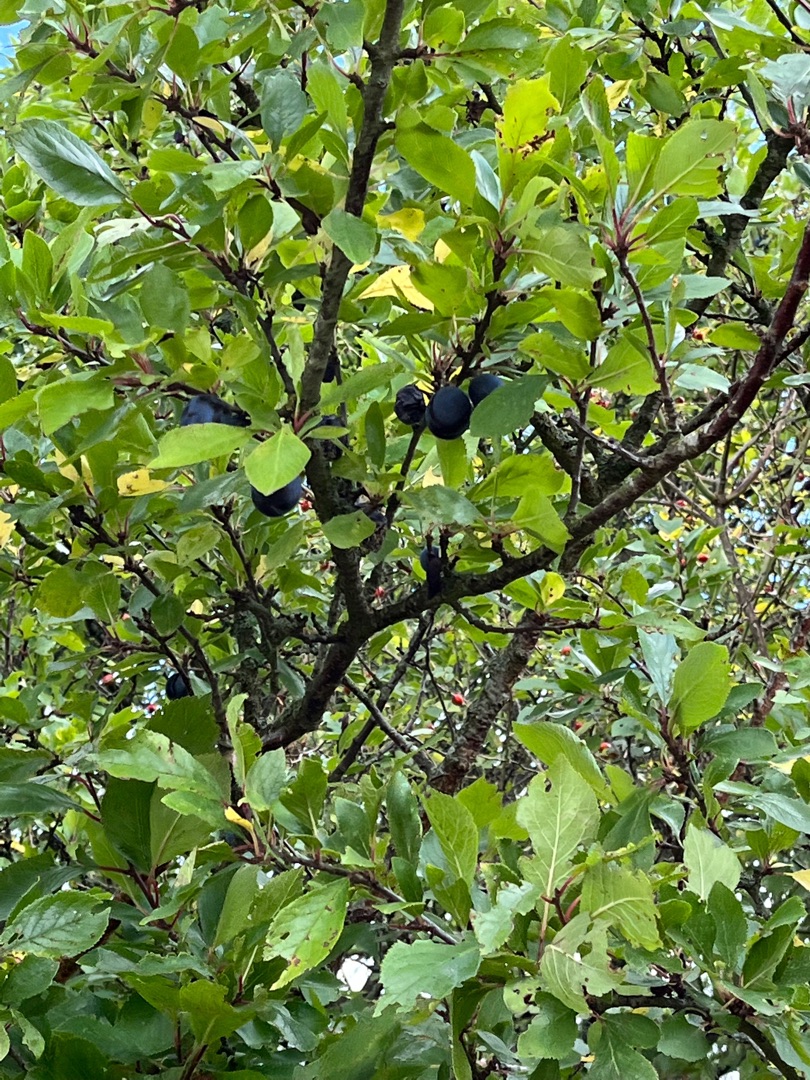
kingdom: Plantae
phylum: Tracheophyta
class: Magnoliopsida
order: Rosales
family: Rosaceae
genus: Prunus
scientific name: Prunus domestica
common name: Blomme
